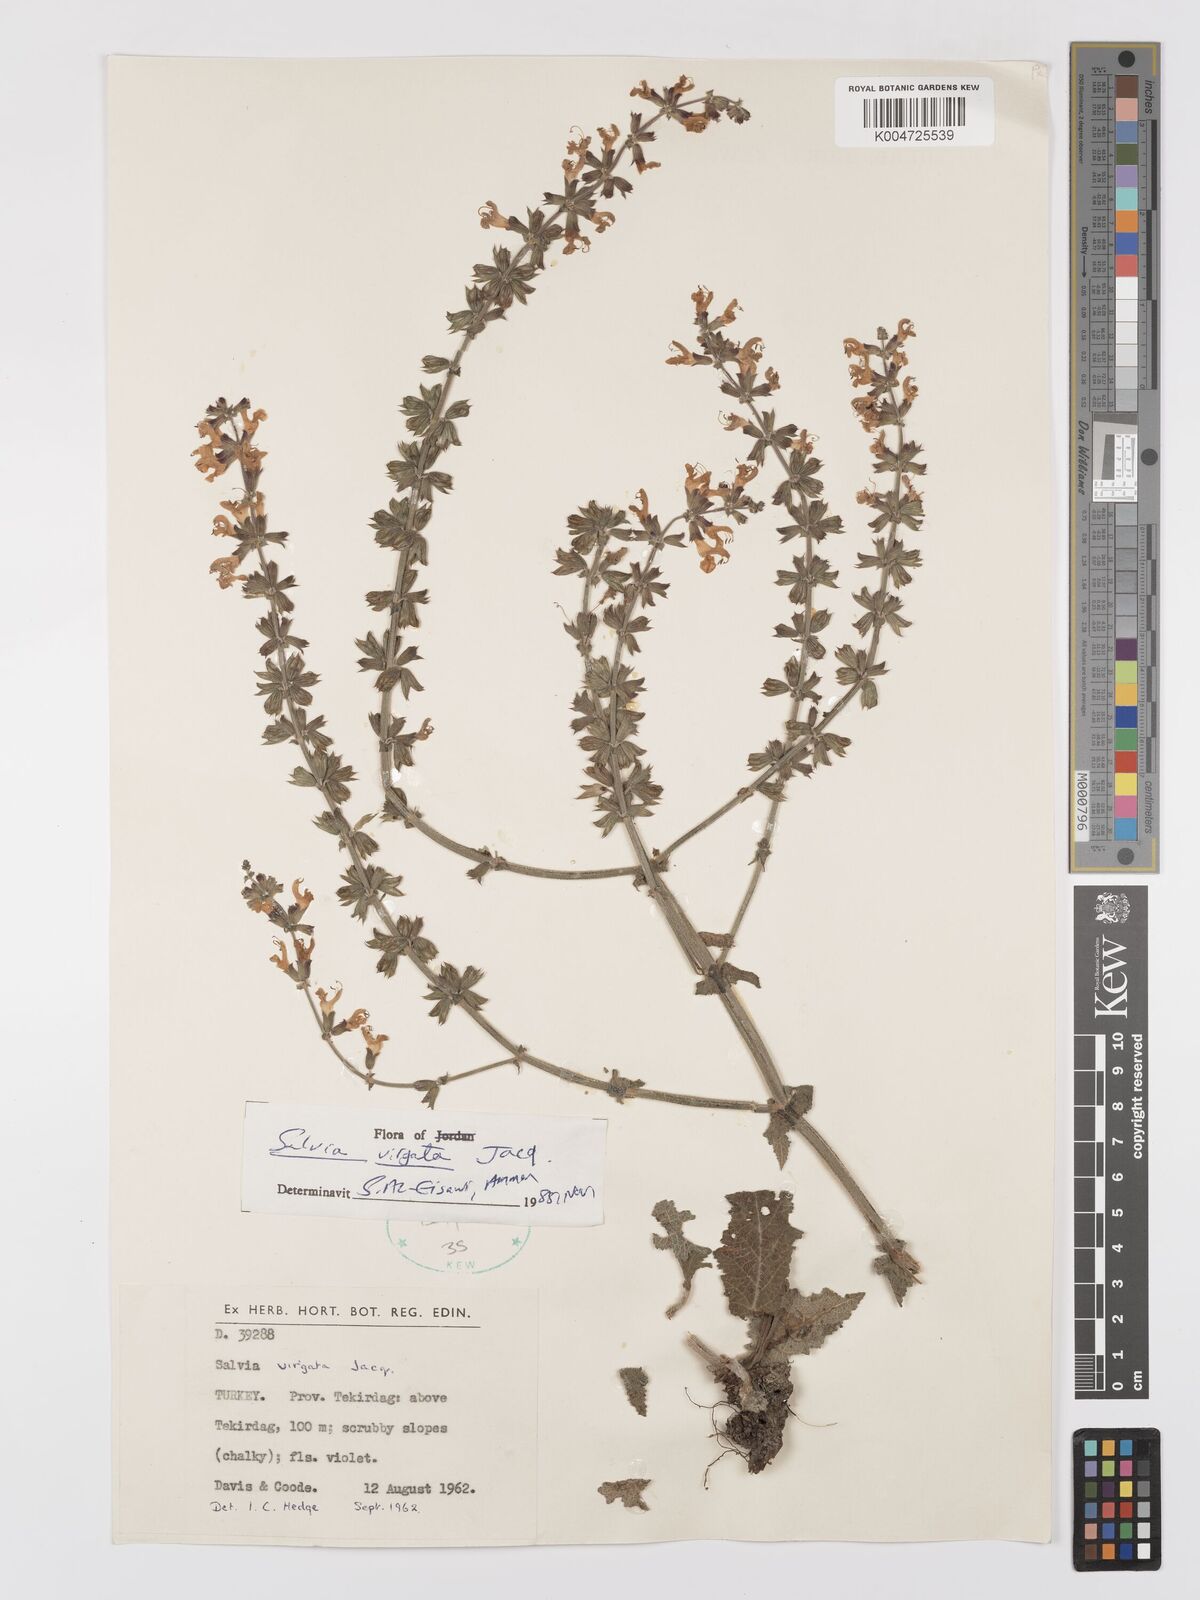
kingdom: Plantae
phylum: Tracheophyta
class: Magnoliopsida
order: Lamiales
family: Lamiaceae
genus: Salvia
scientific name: Salvia
